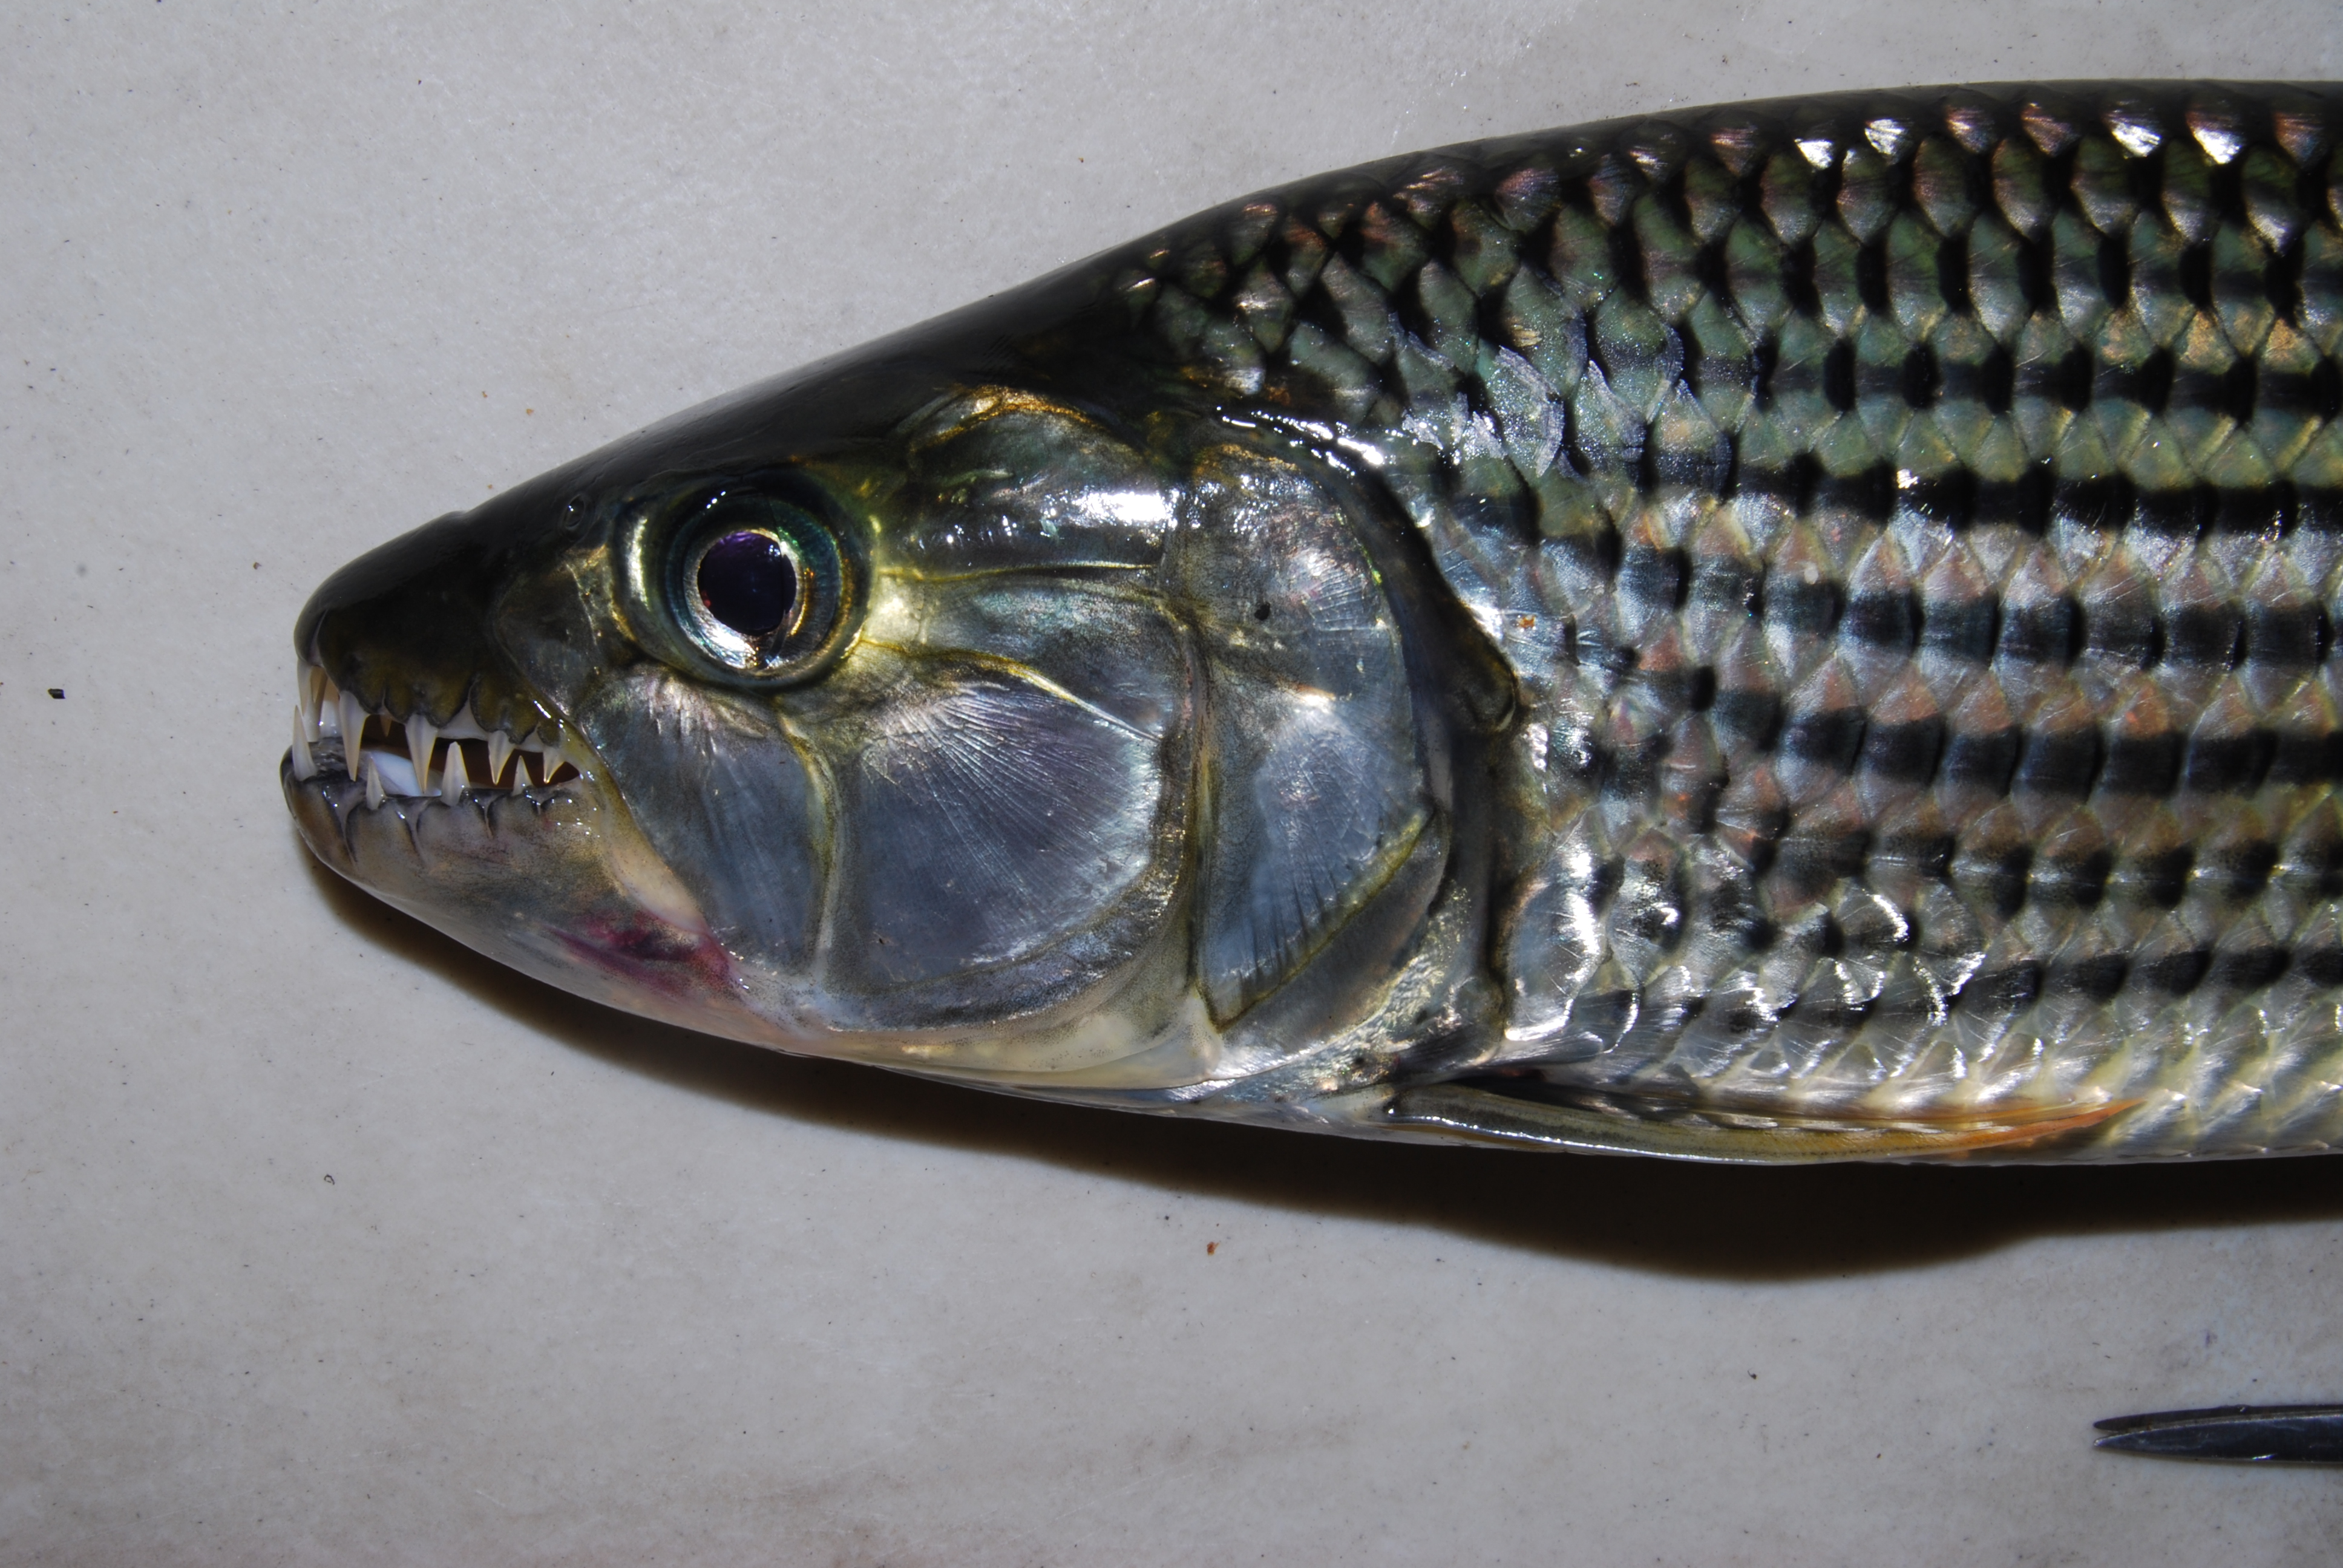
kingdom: Animalia
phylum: Chordata
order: Characiformes
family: Alestidae
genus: Hydrocynus
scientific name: Hydrocynus vittatus
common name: Tigerfish
